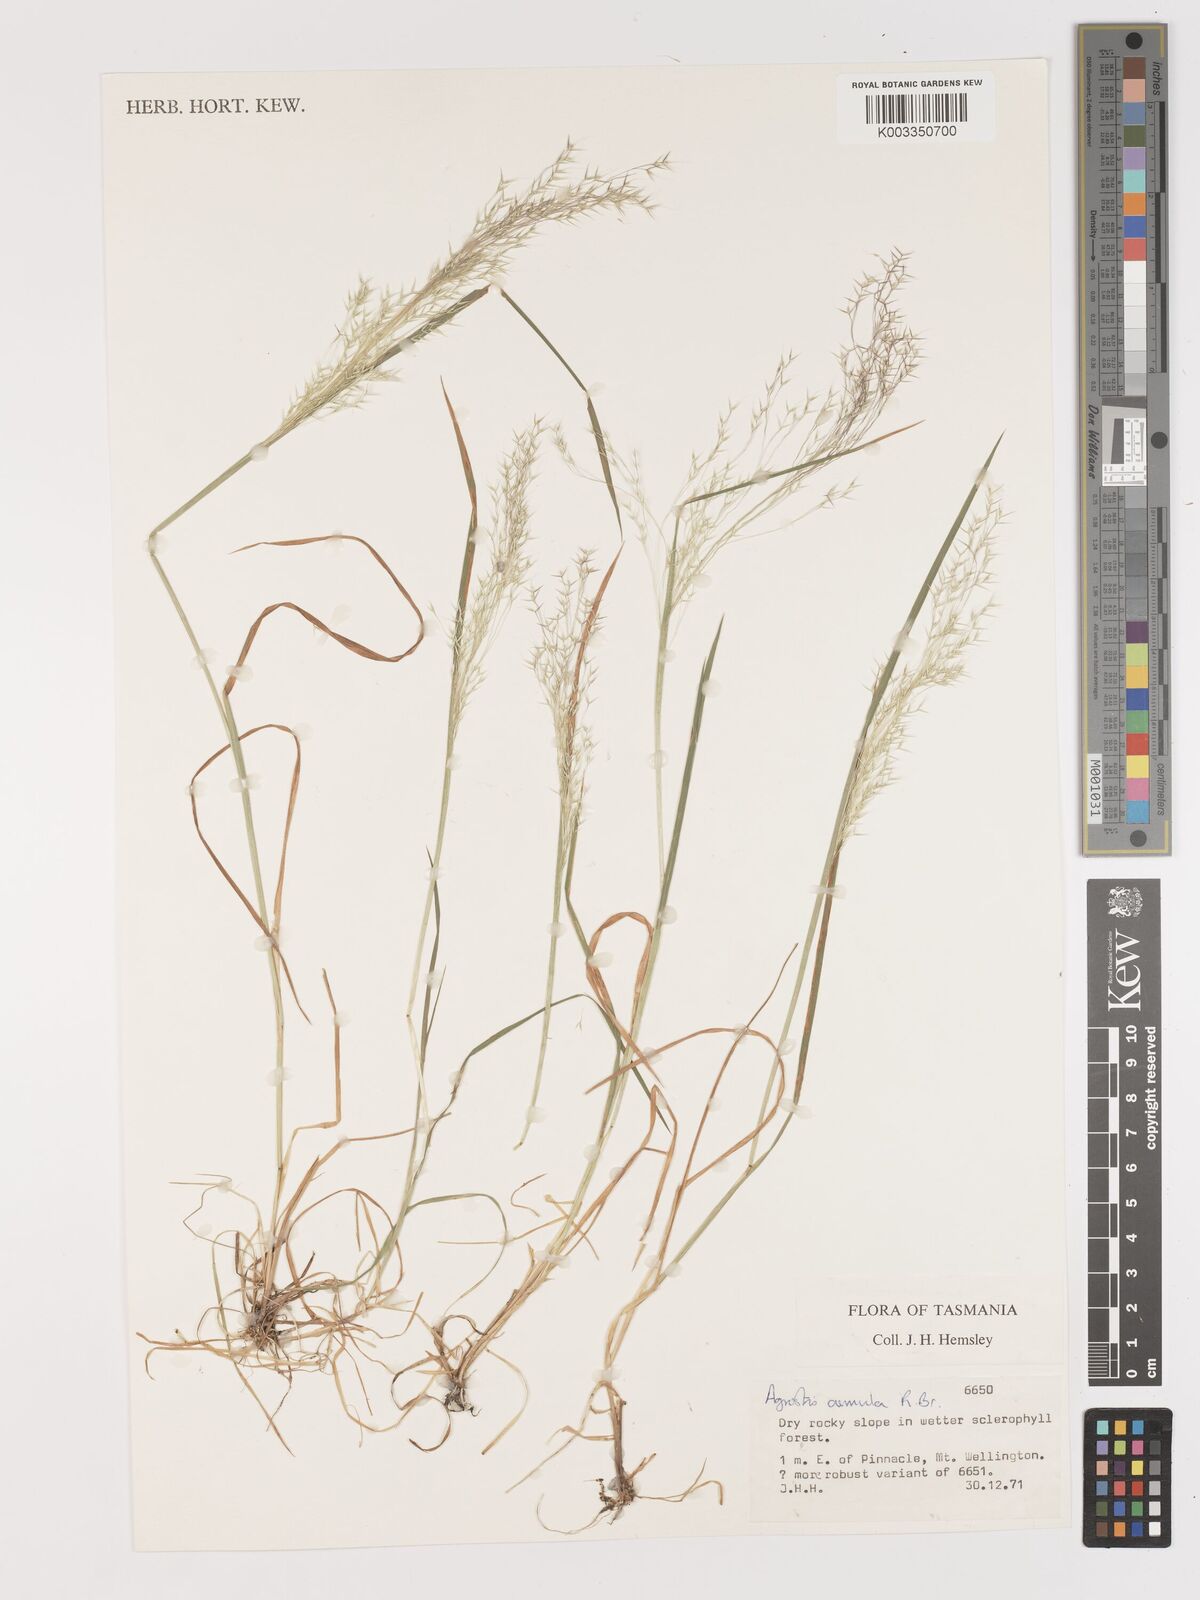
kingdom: Plantae
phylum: Tracheophyta
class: Liliopsida
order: Poales
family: Poaceae
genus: Lachnagrostis
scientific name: Lachnagrostis aemula
